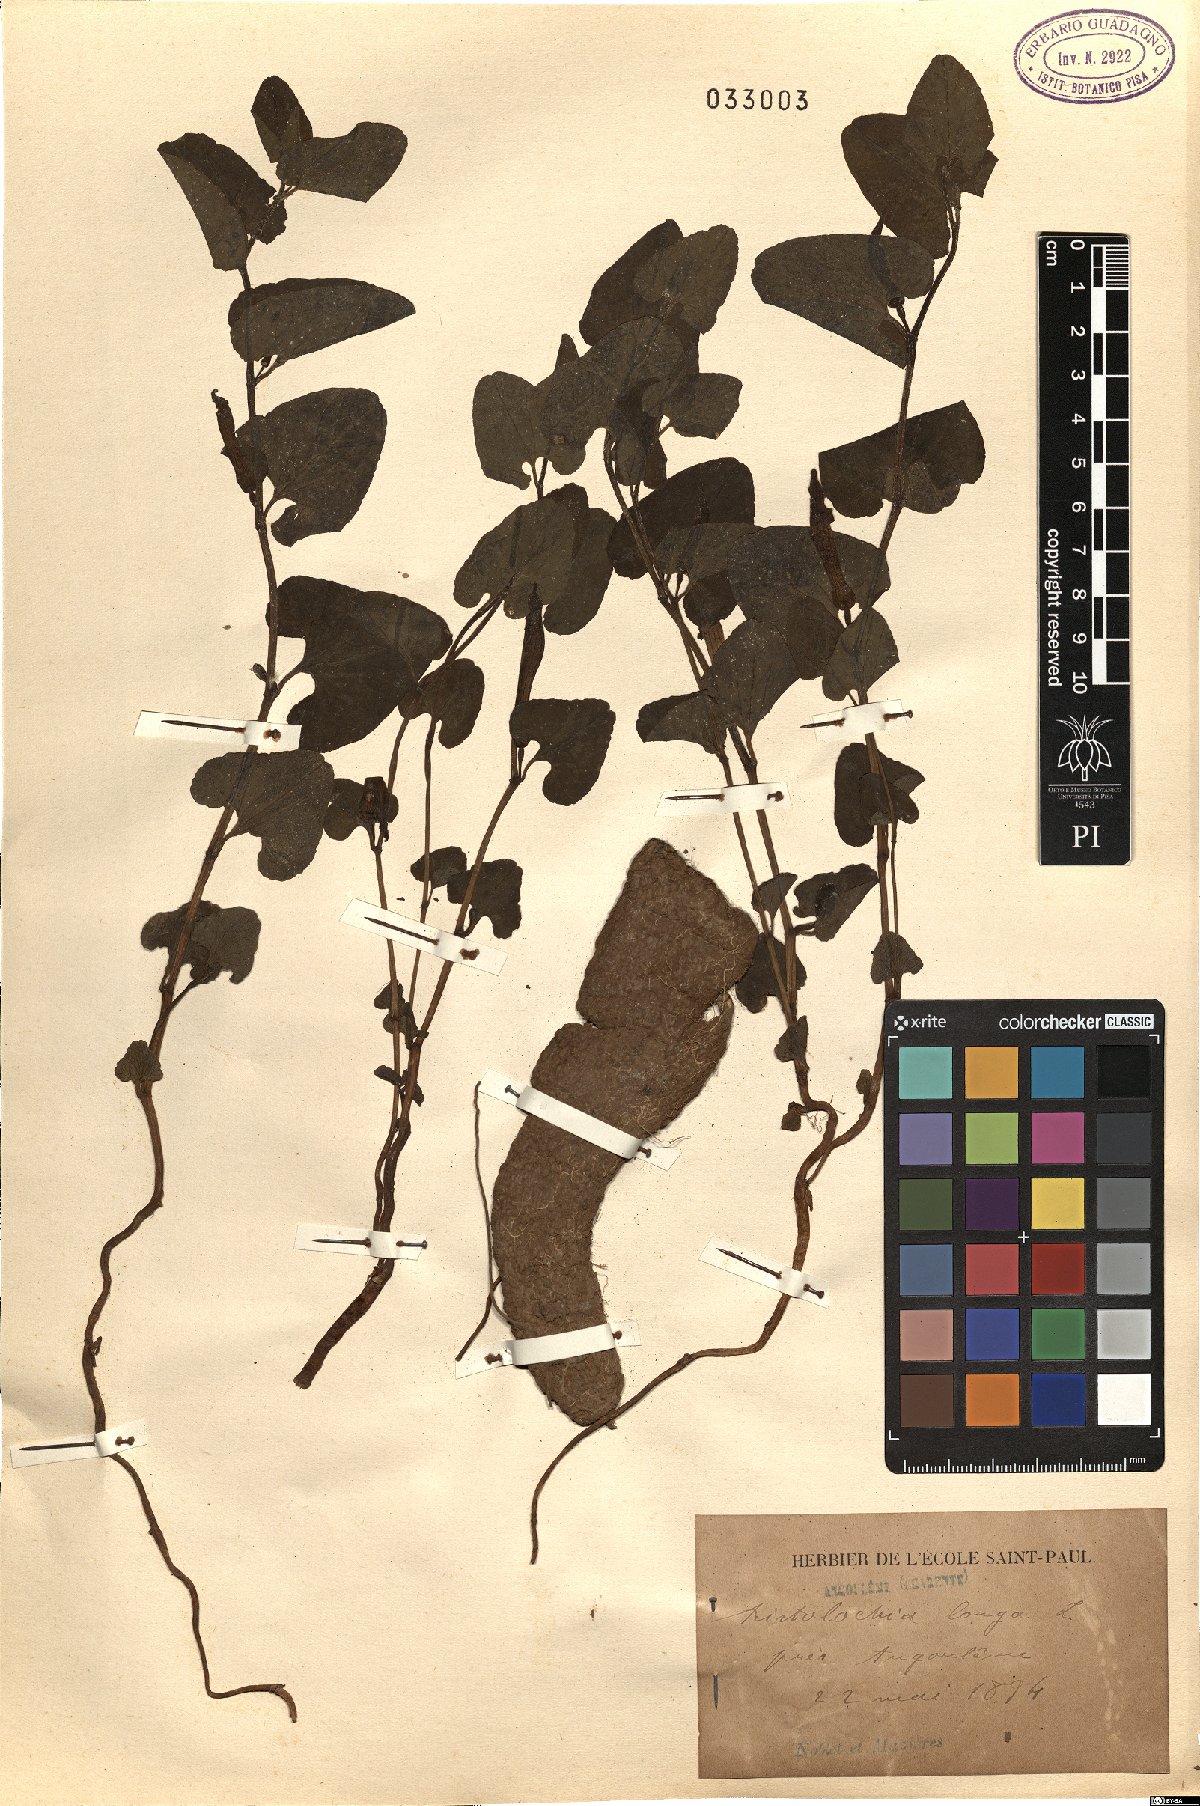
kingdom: Plantae
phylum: Tracheophyta
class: Magnoliopsida
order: Piperales
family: Aristolochiaceae
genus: Aristolochia
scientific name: Aristolochia fontanesii
